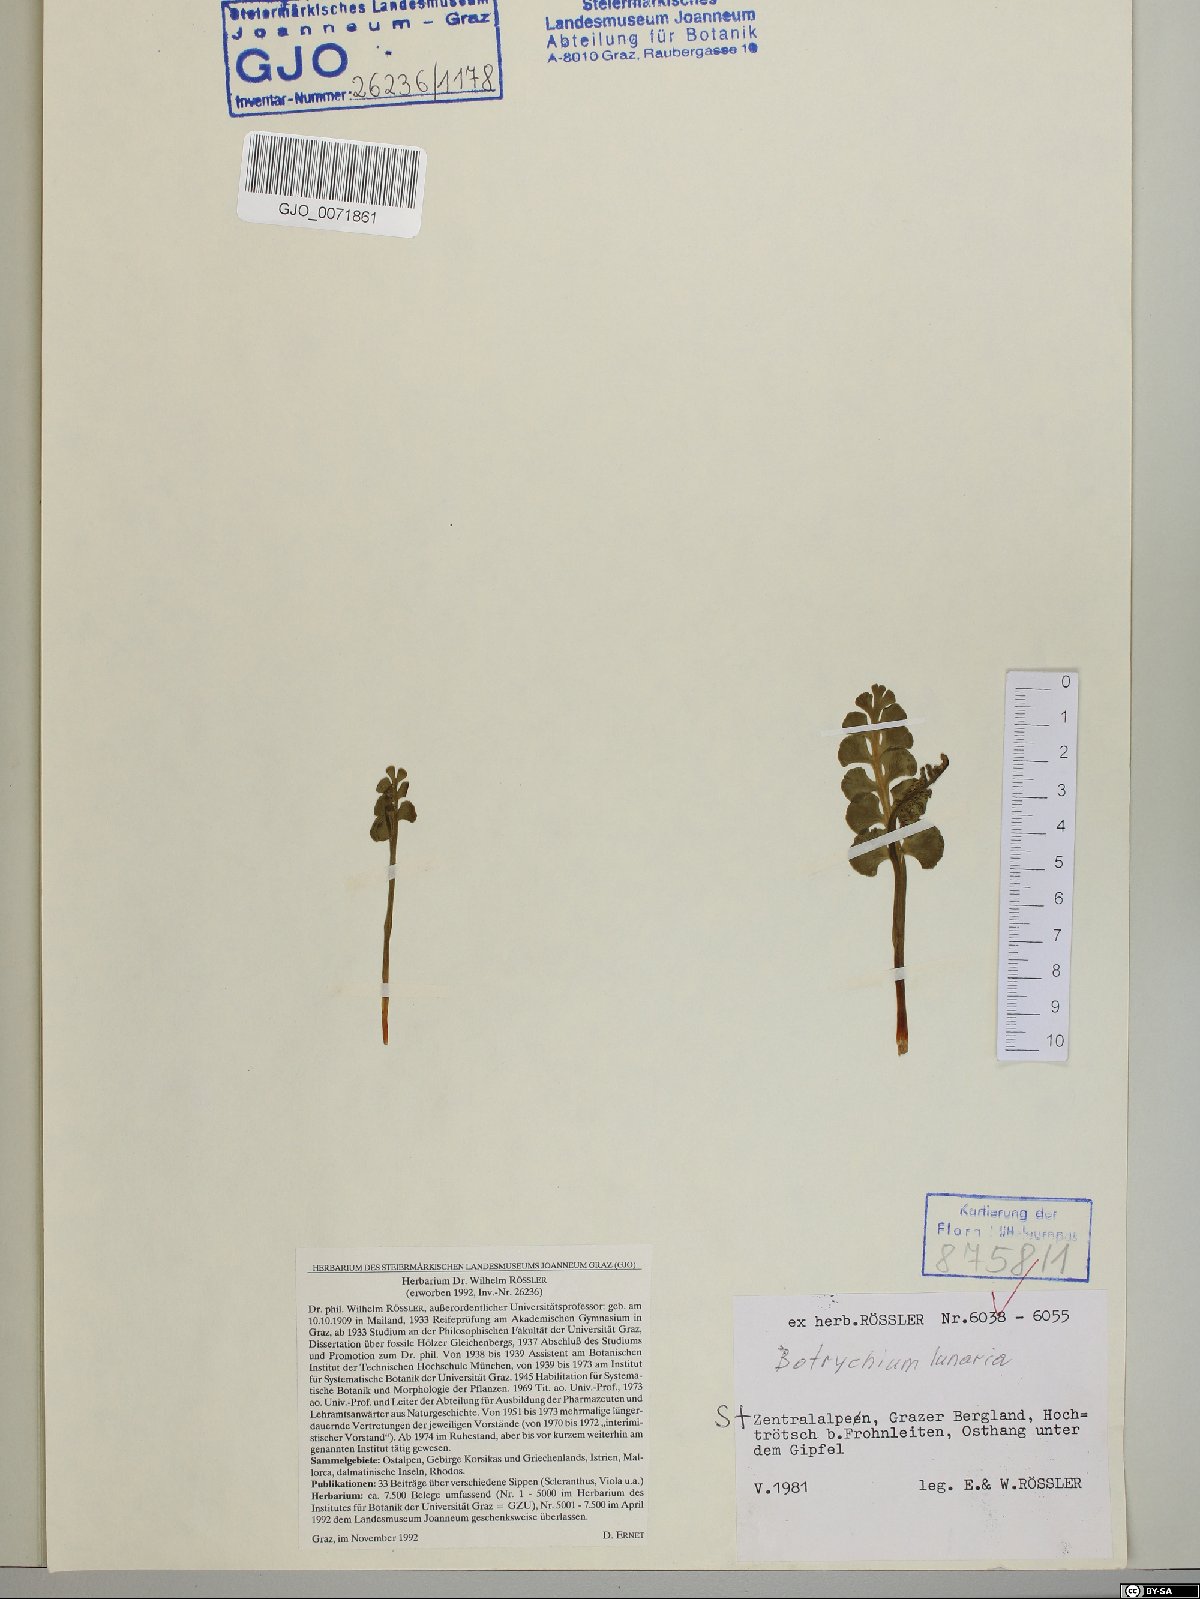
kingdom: Plantae
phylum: Tracheophyta
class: Polypodiopsida
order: Ophioglossales
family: Ophioglossaceae
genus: Botrychium
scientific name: Botrychium lunaria
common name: Moonwort
